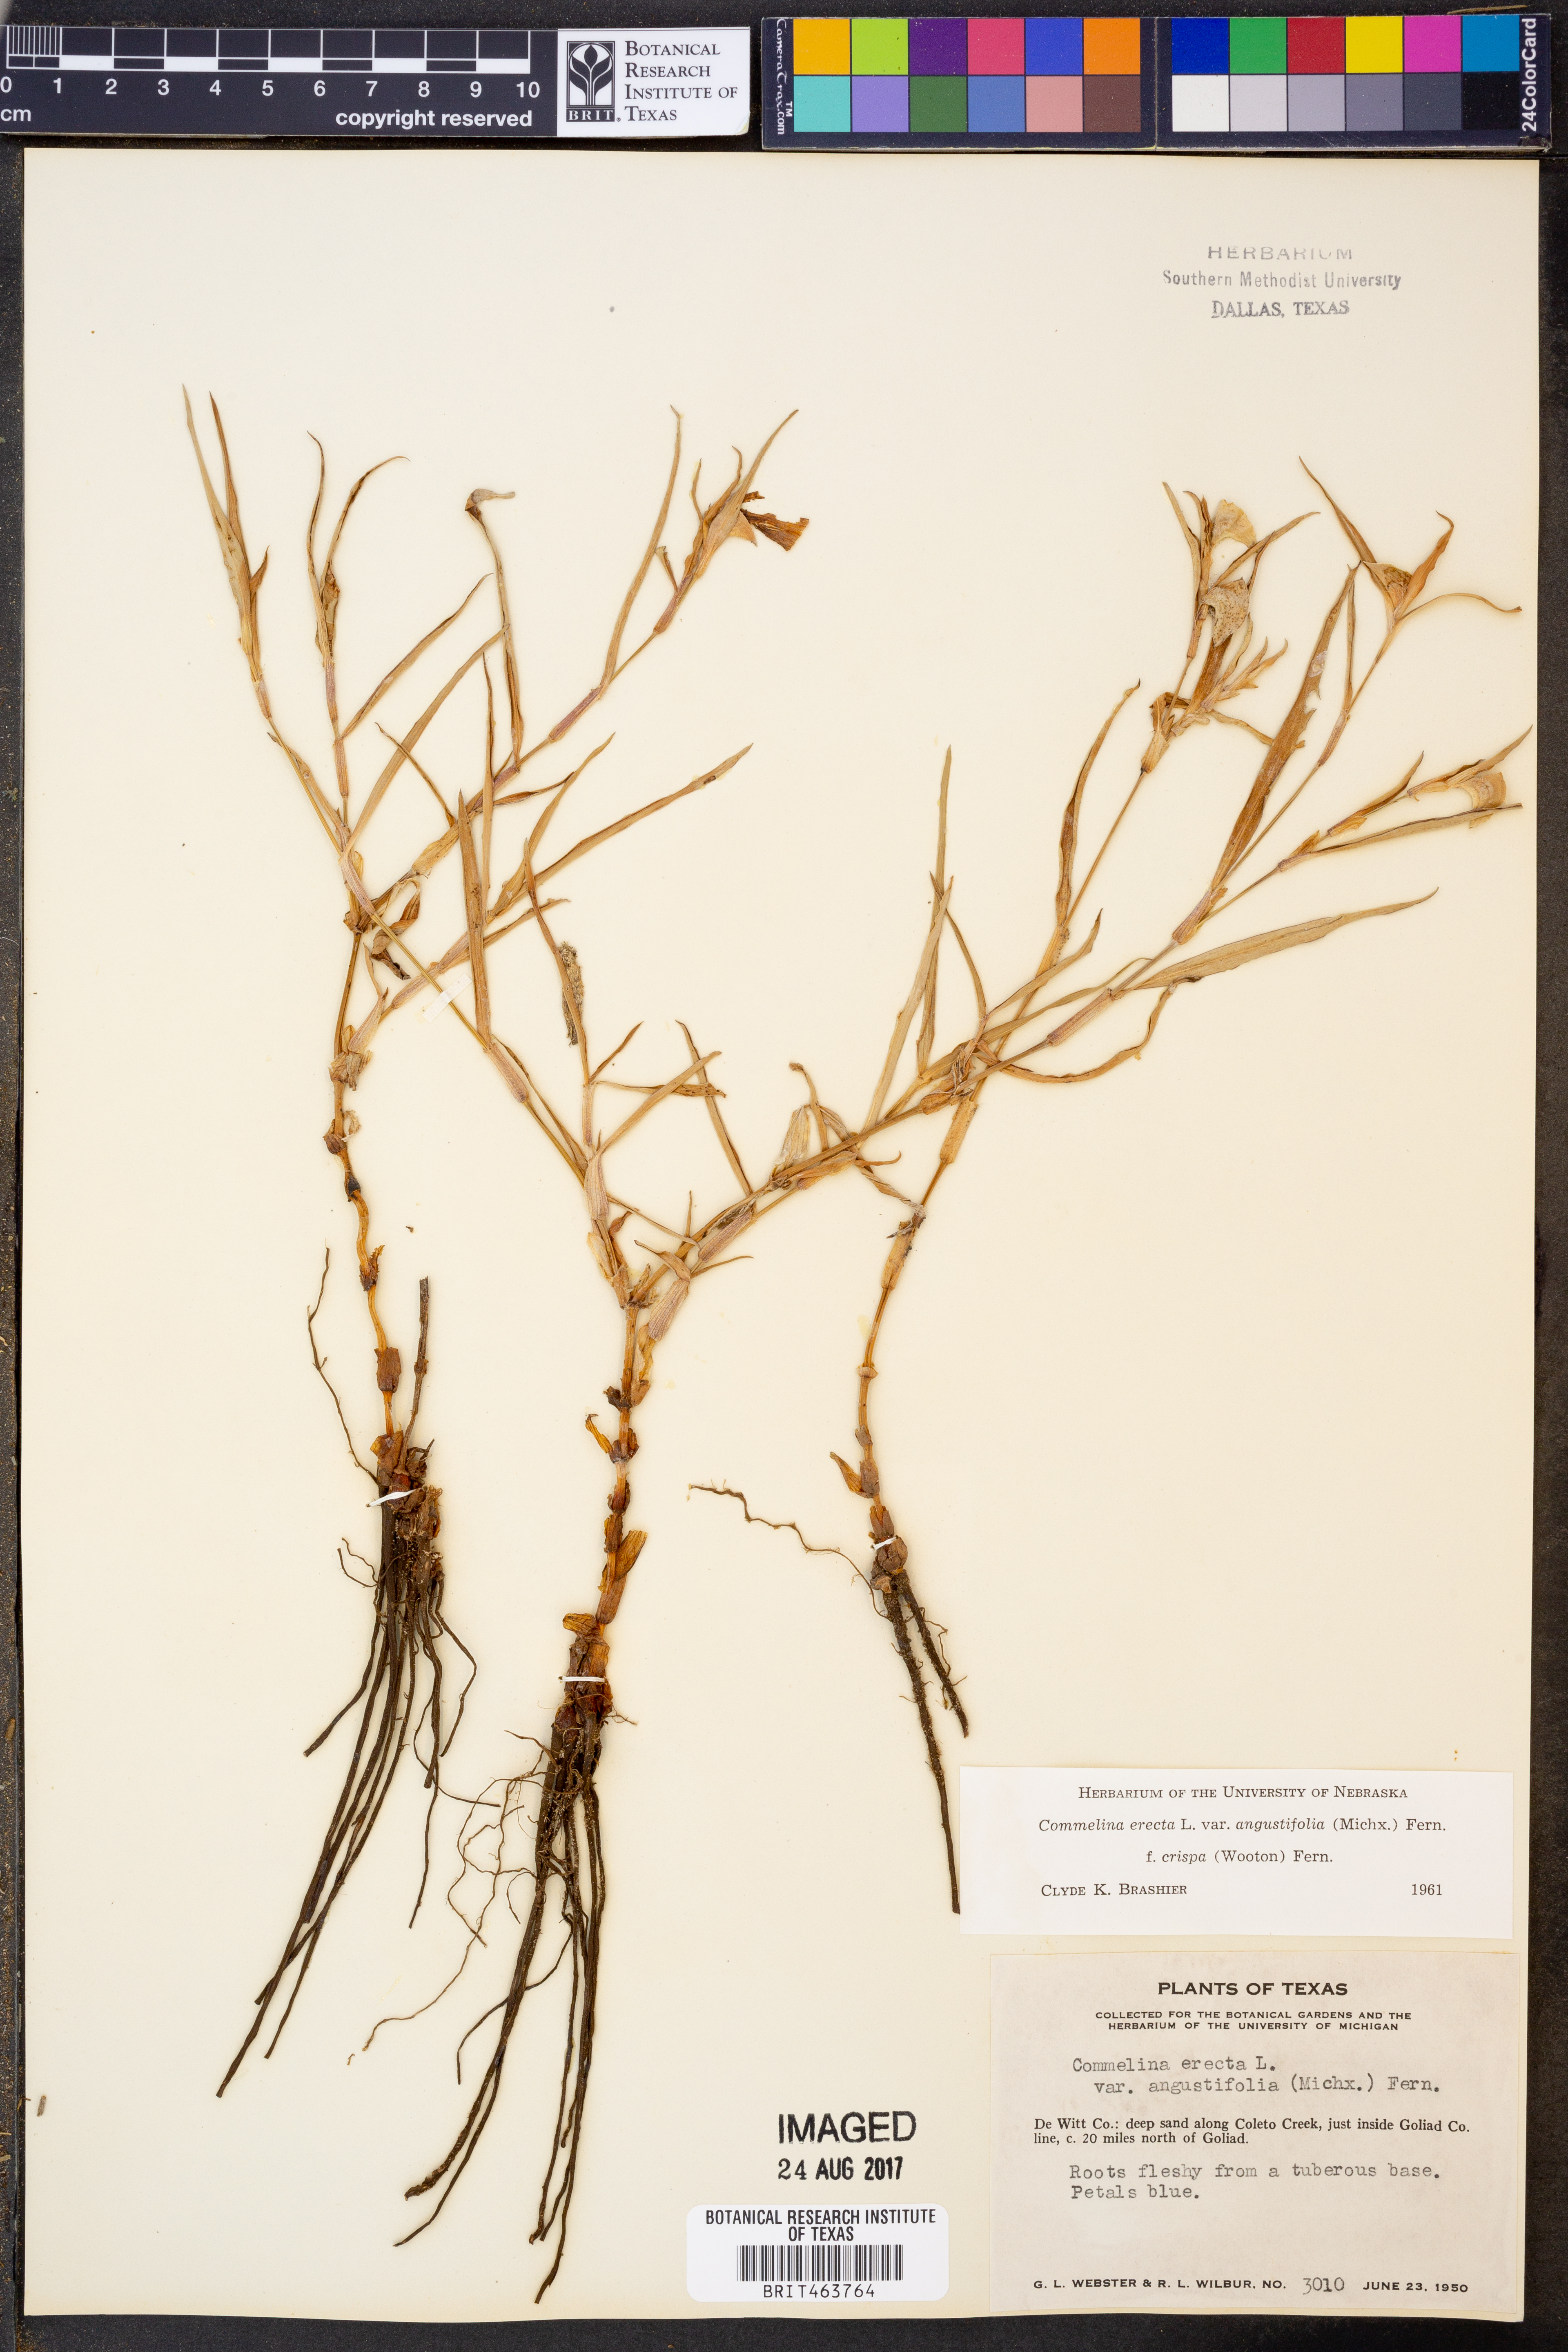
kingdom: Plantae
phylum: Tracheophyta
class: Liliopsida
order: Commelinales
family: Commelinaceae
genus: Commelina
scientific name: Commelina erecta
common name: Blousel blommetjie
